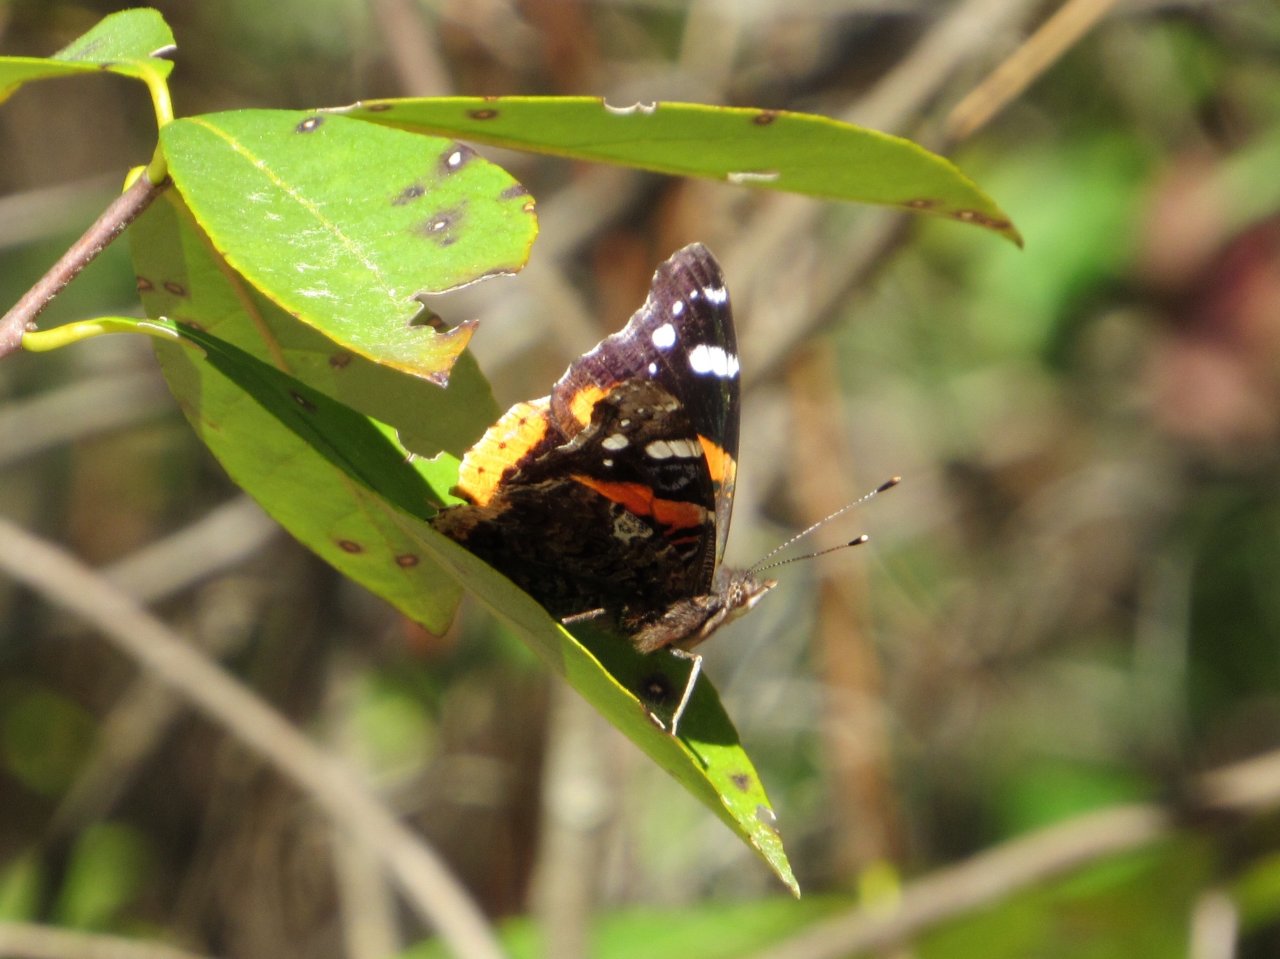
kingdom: Animalia
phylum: Arthropoda
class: Insecta
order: Lepidoptera
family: Nymphalidae
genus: Vanessa
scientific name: Vanessa atalanta
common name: Red Admiral
